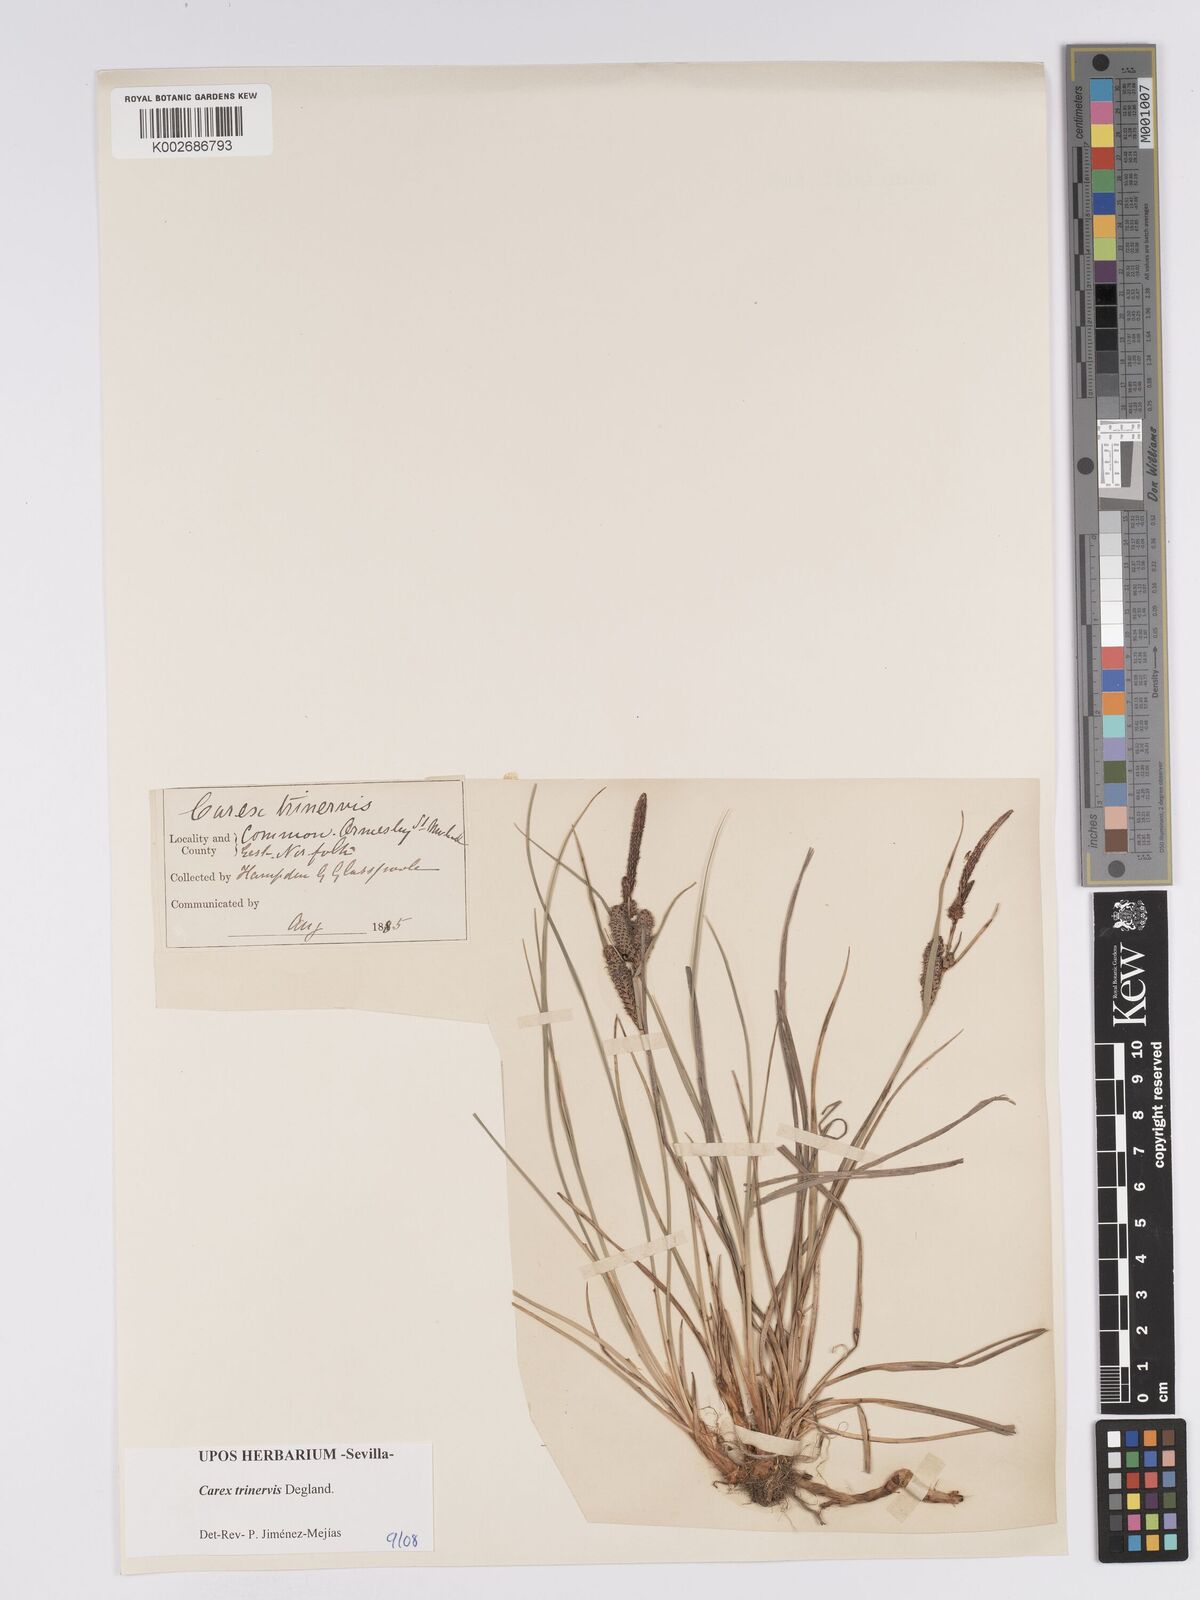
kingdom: Plantae
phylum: Tracheophyta
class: Liliopsida
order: Poales
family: Cyperaceae
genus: Carex
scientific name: Carex trinervis
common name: Three-nerved sedge
